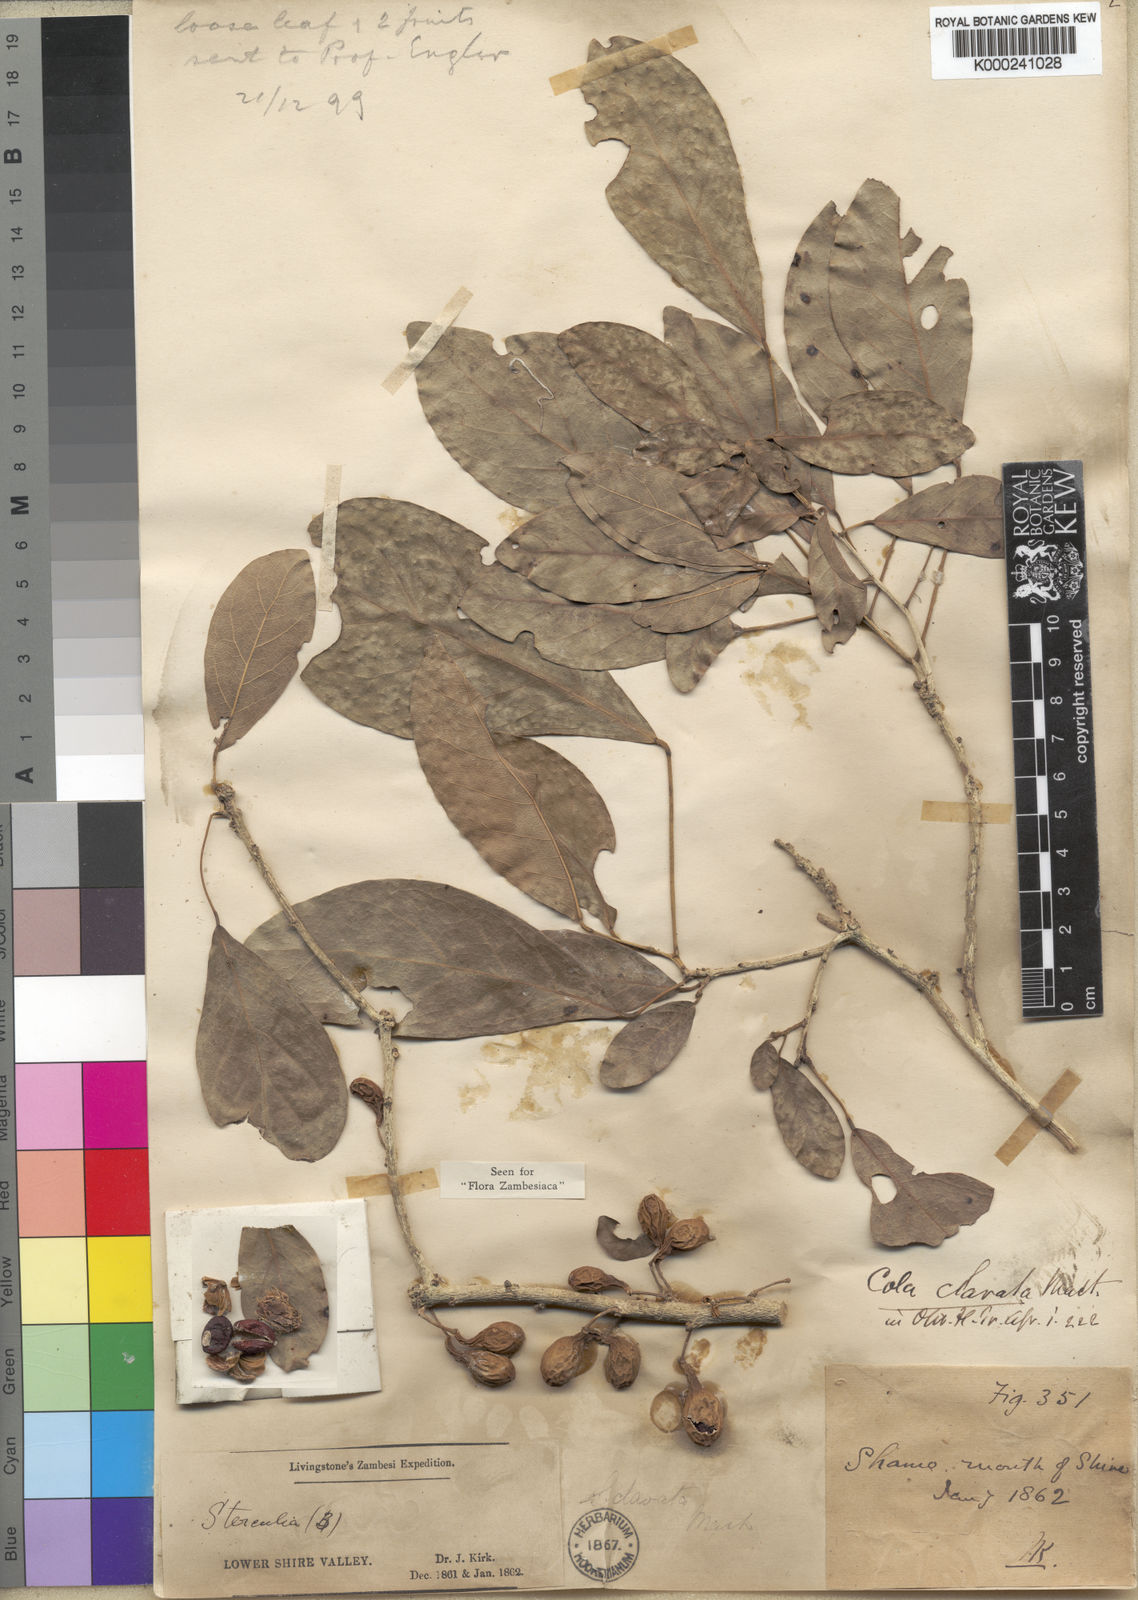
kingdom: Plantae
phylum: Tracheophyta
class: Magnoliopsida
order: Malvales
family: Malvaceae
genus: Cola
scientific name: Cola clavata
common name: Club-fruited cola
